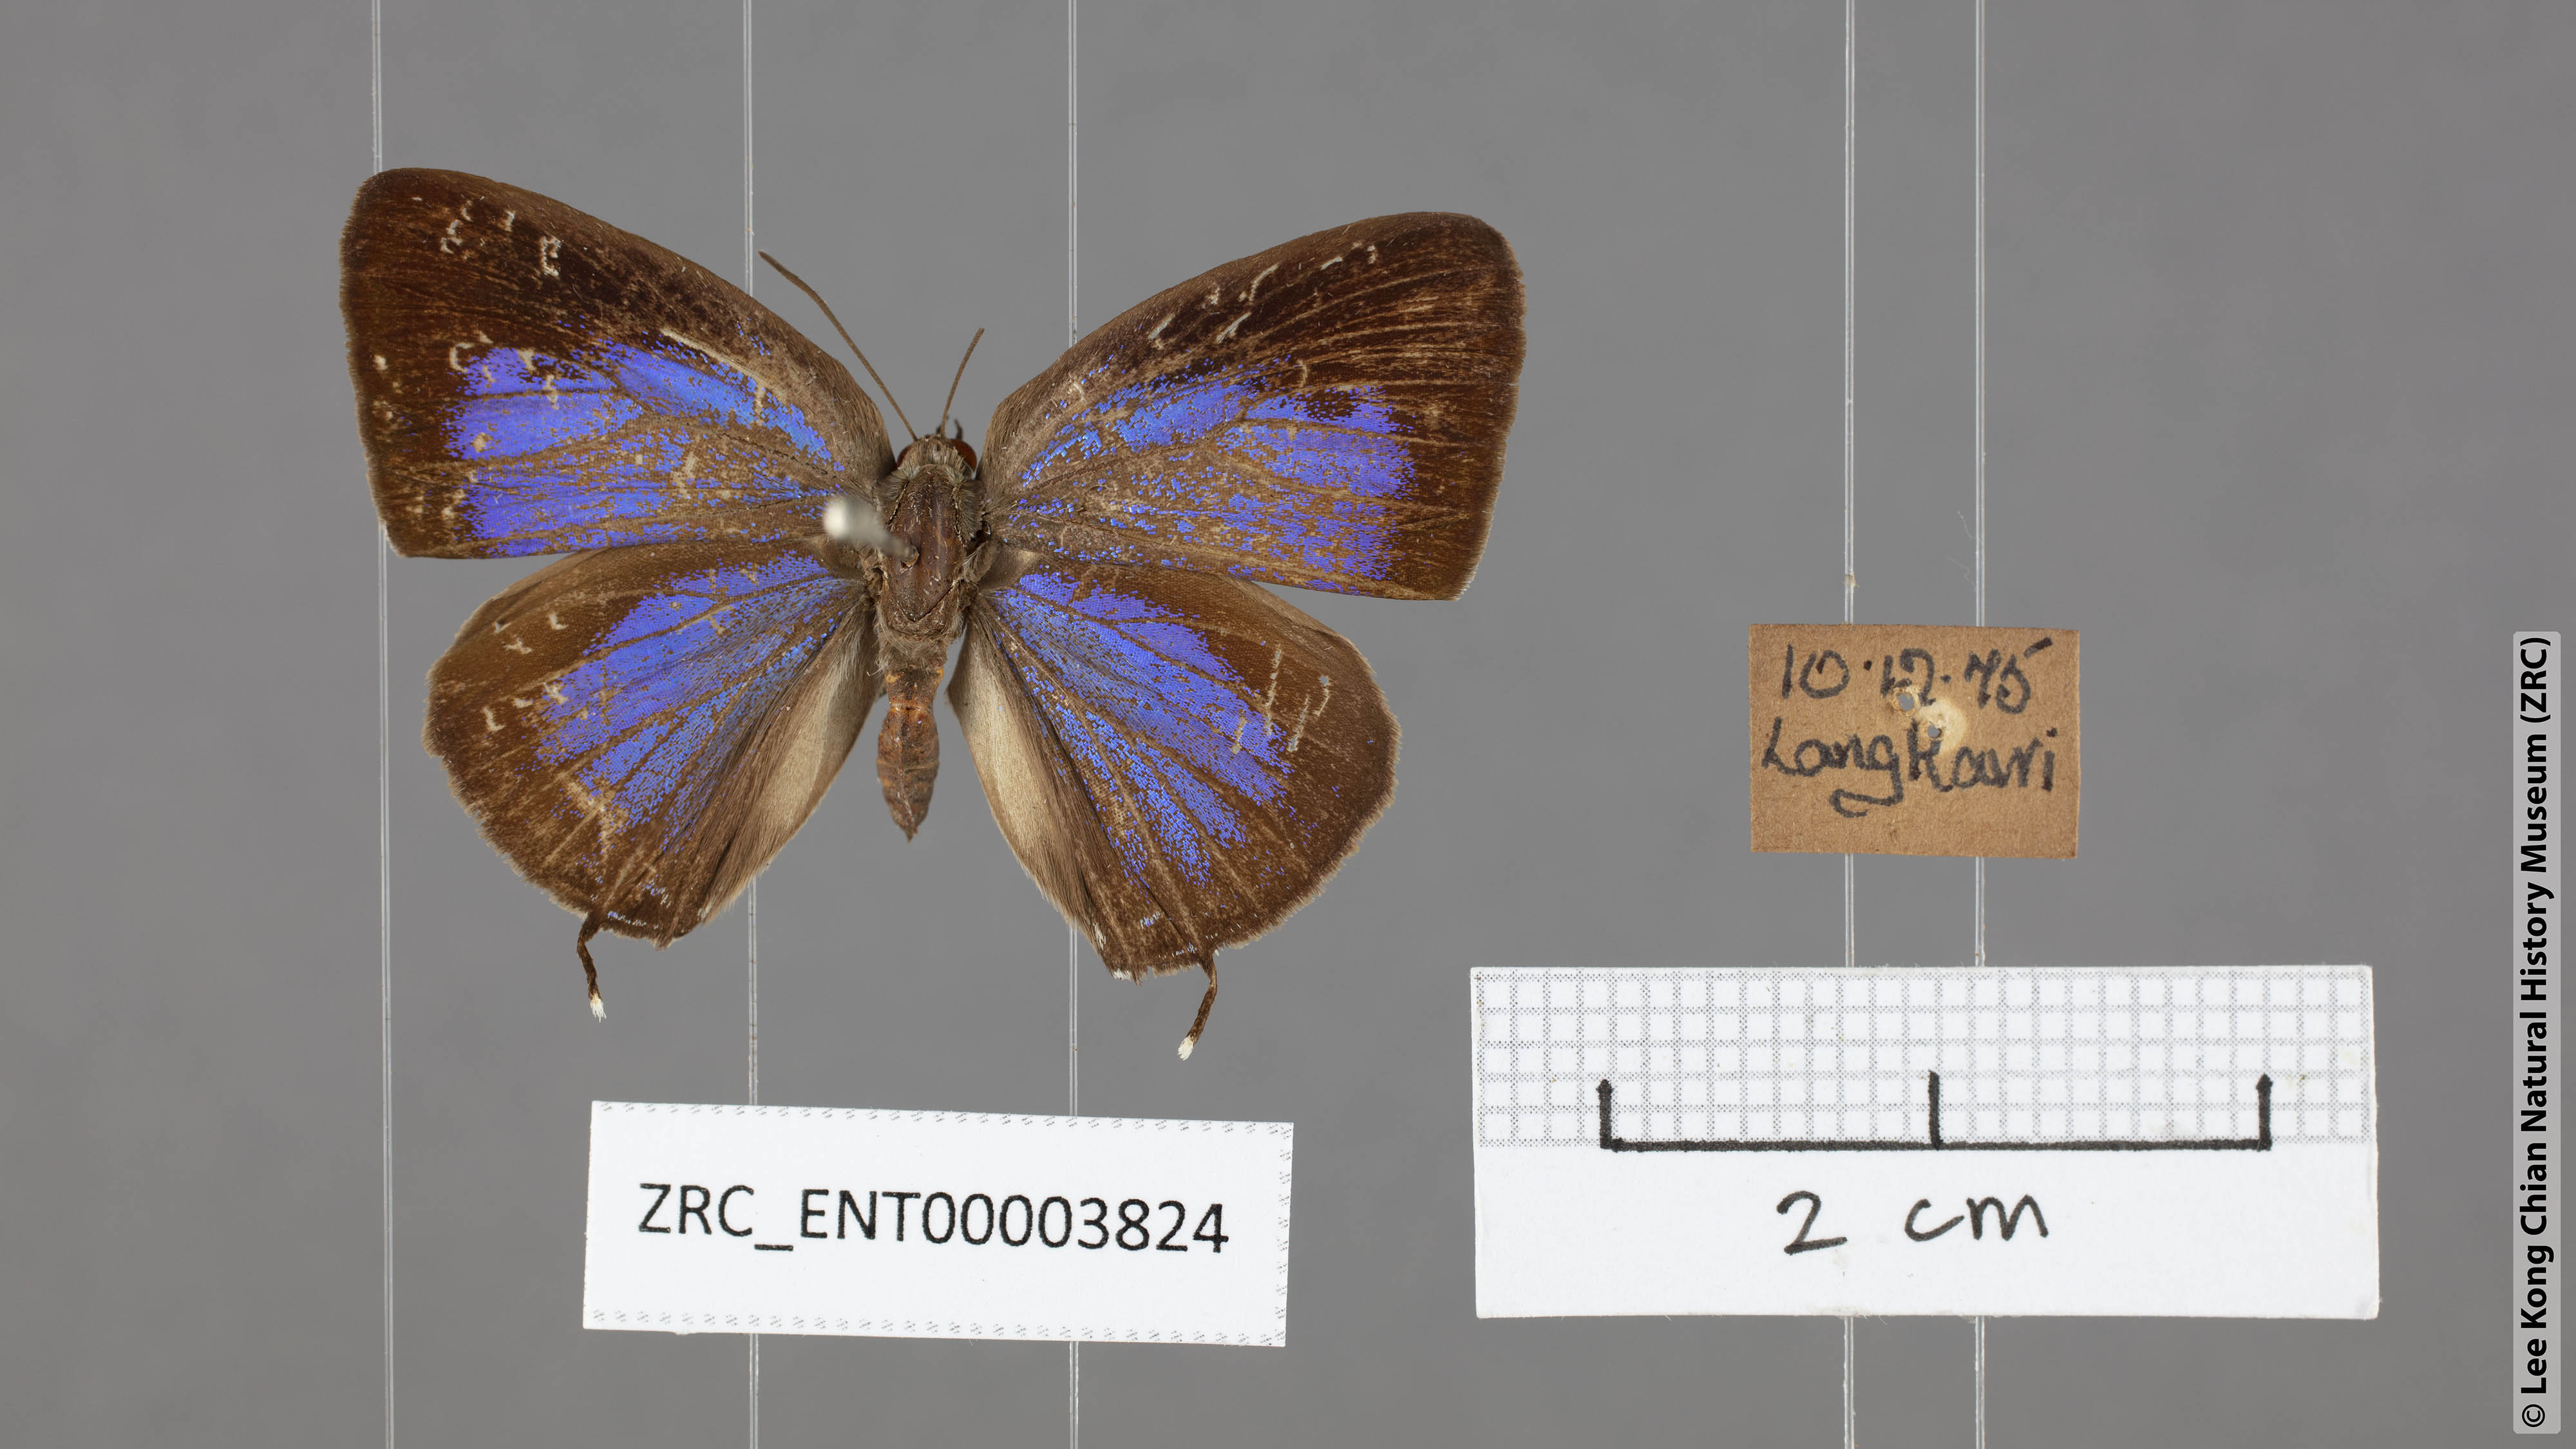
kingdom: Animalia
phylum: Arthropoda
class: Insecta
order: Lepidoptera
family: Lycaenidae
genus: Arhopala
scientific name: Arhopala aida
